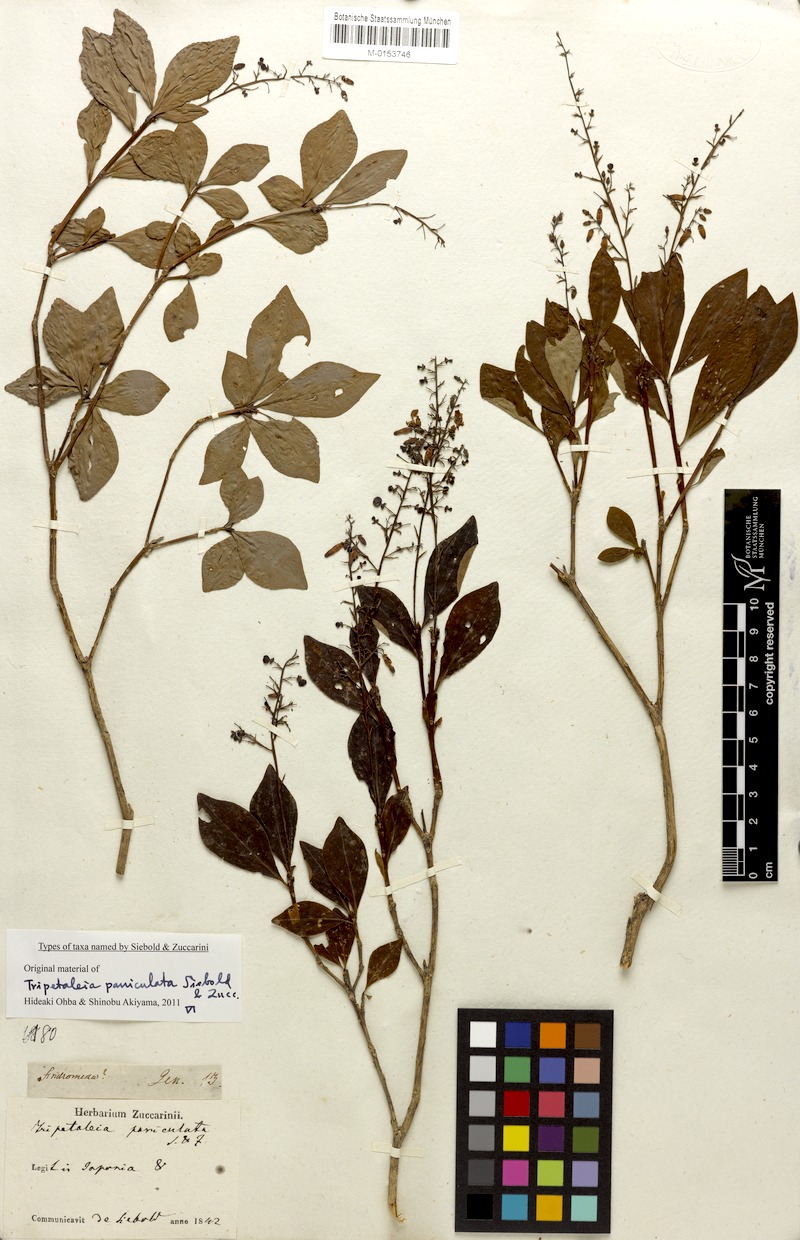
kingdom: Plantae
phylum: Tracheophyta
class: Magnoliopsida
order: Ericales
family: Ericaceae
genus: Elliottia
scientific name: Elliottia paniculata
